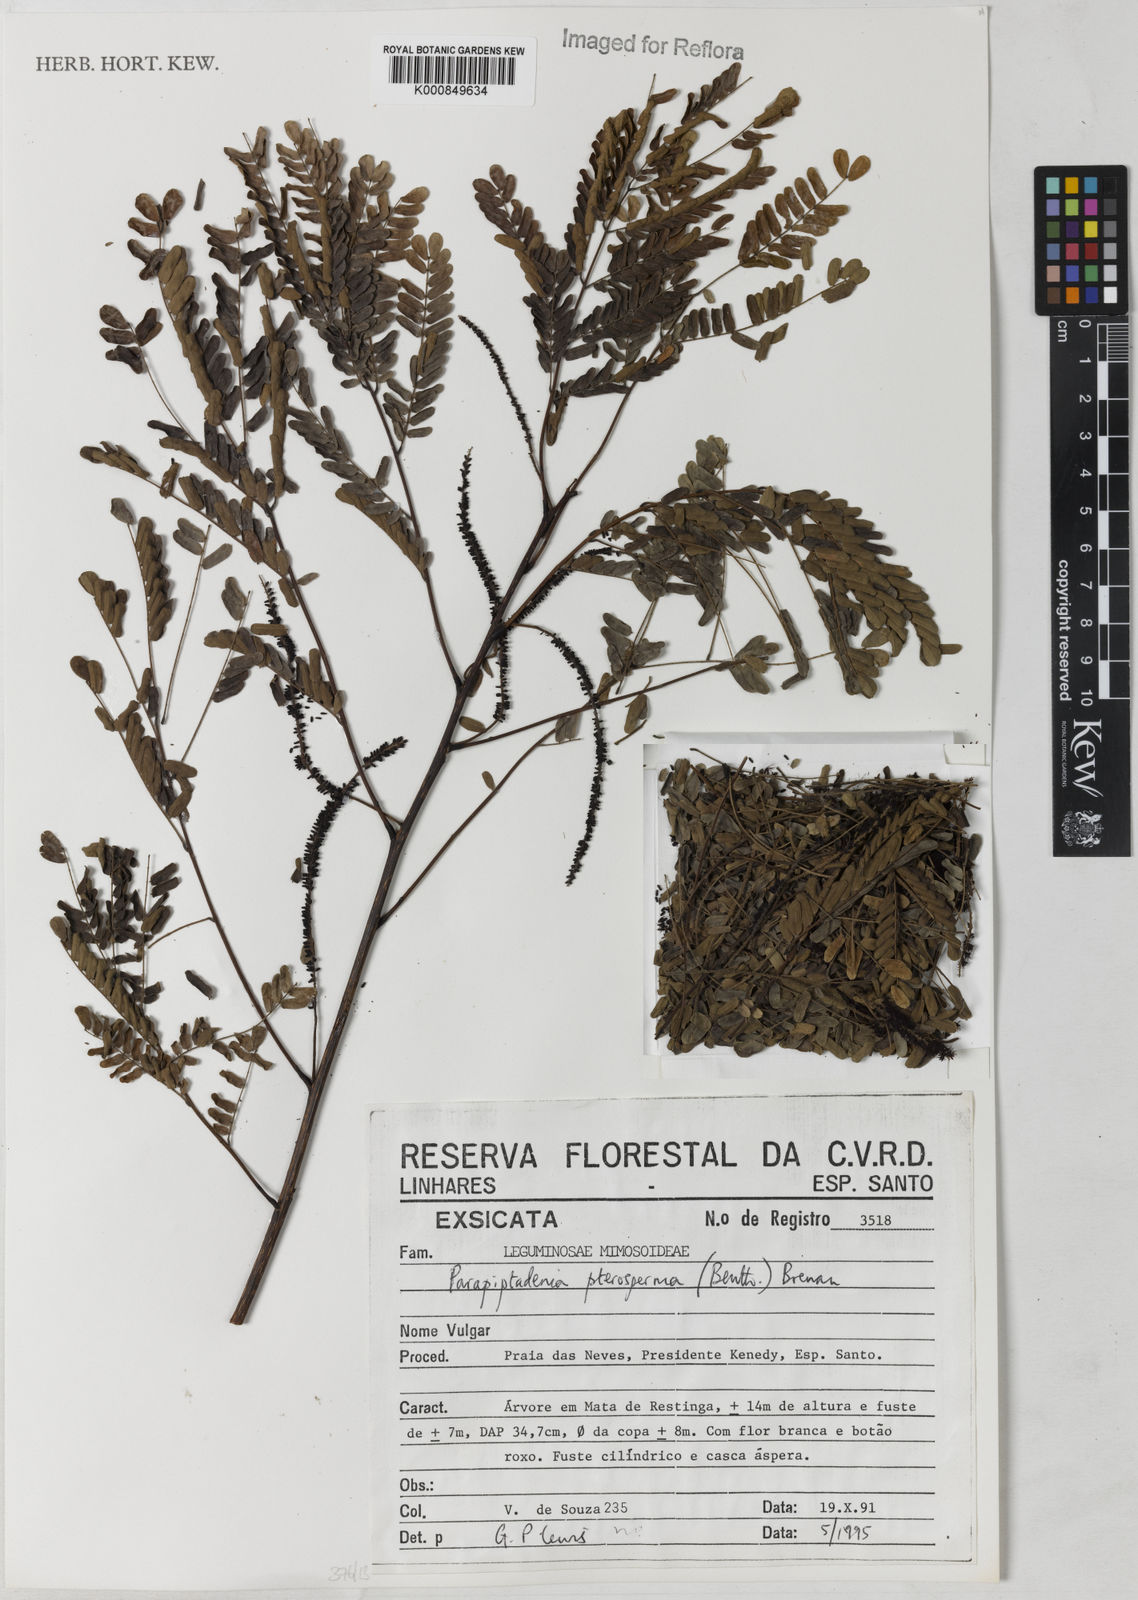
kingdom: Plantae
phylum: Tracheophyta
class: Magnoliopsida
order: Fabales
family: Fabaceae
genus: Parapiptadenia
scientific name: Parapiptadenia pterosperma
